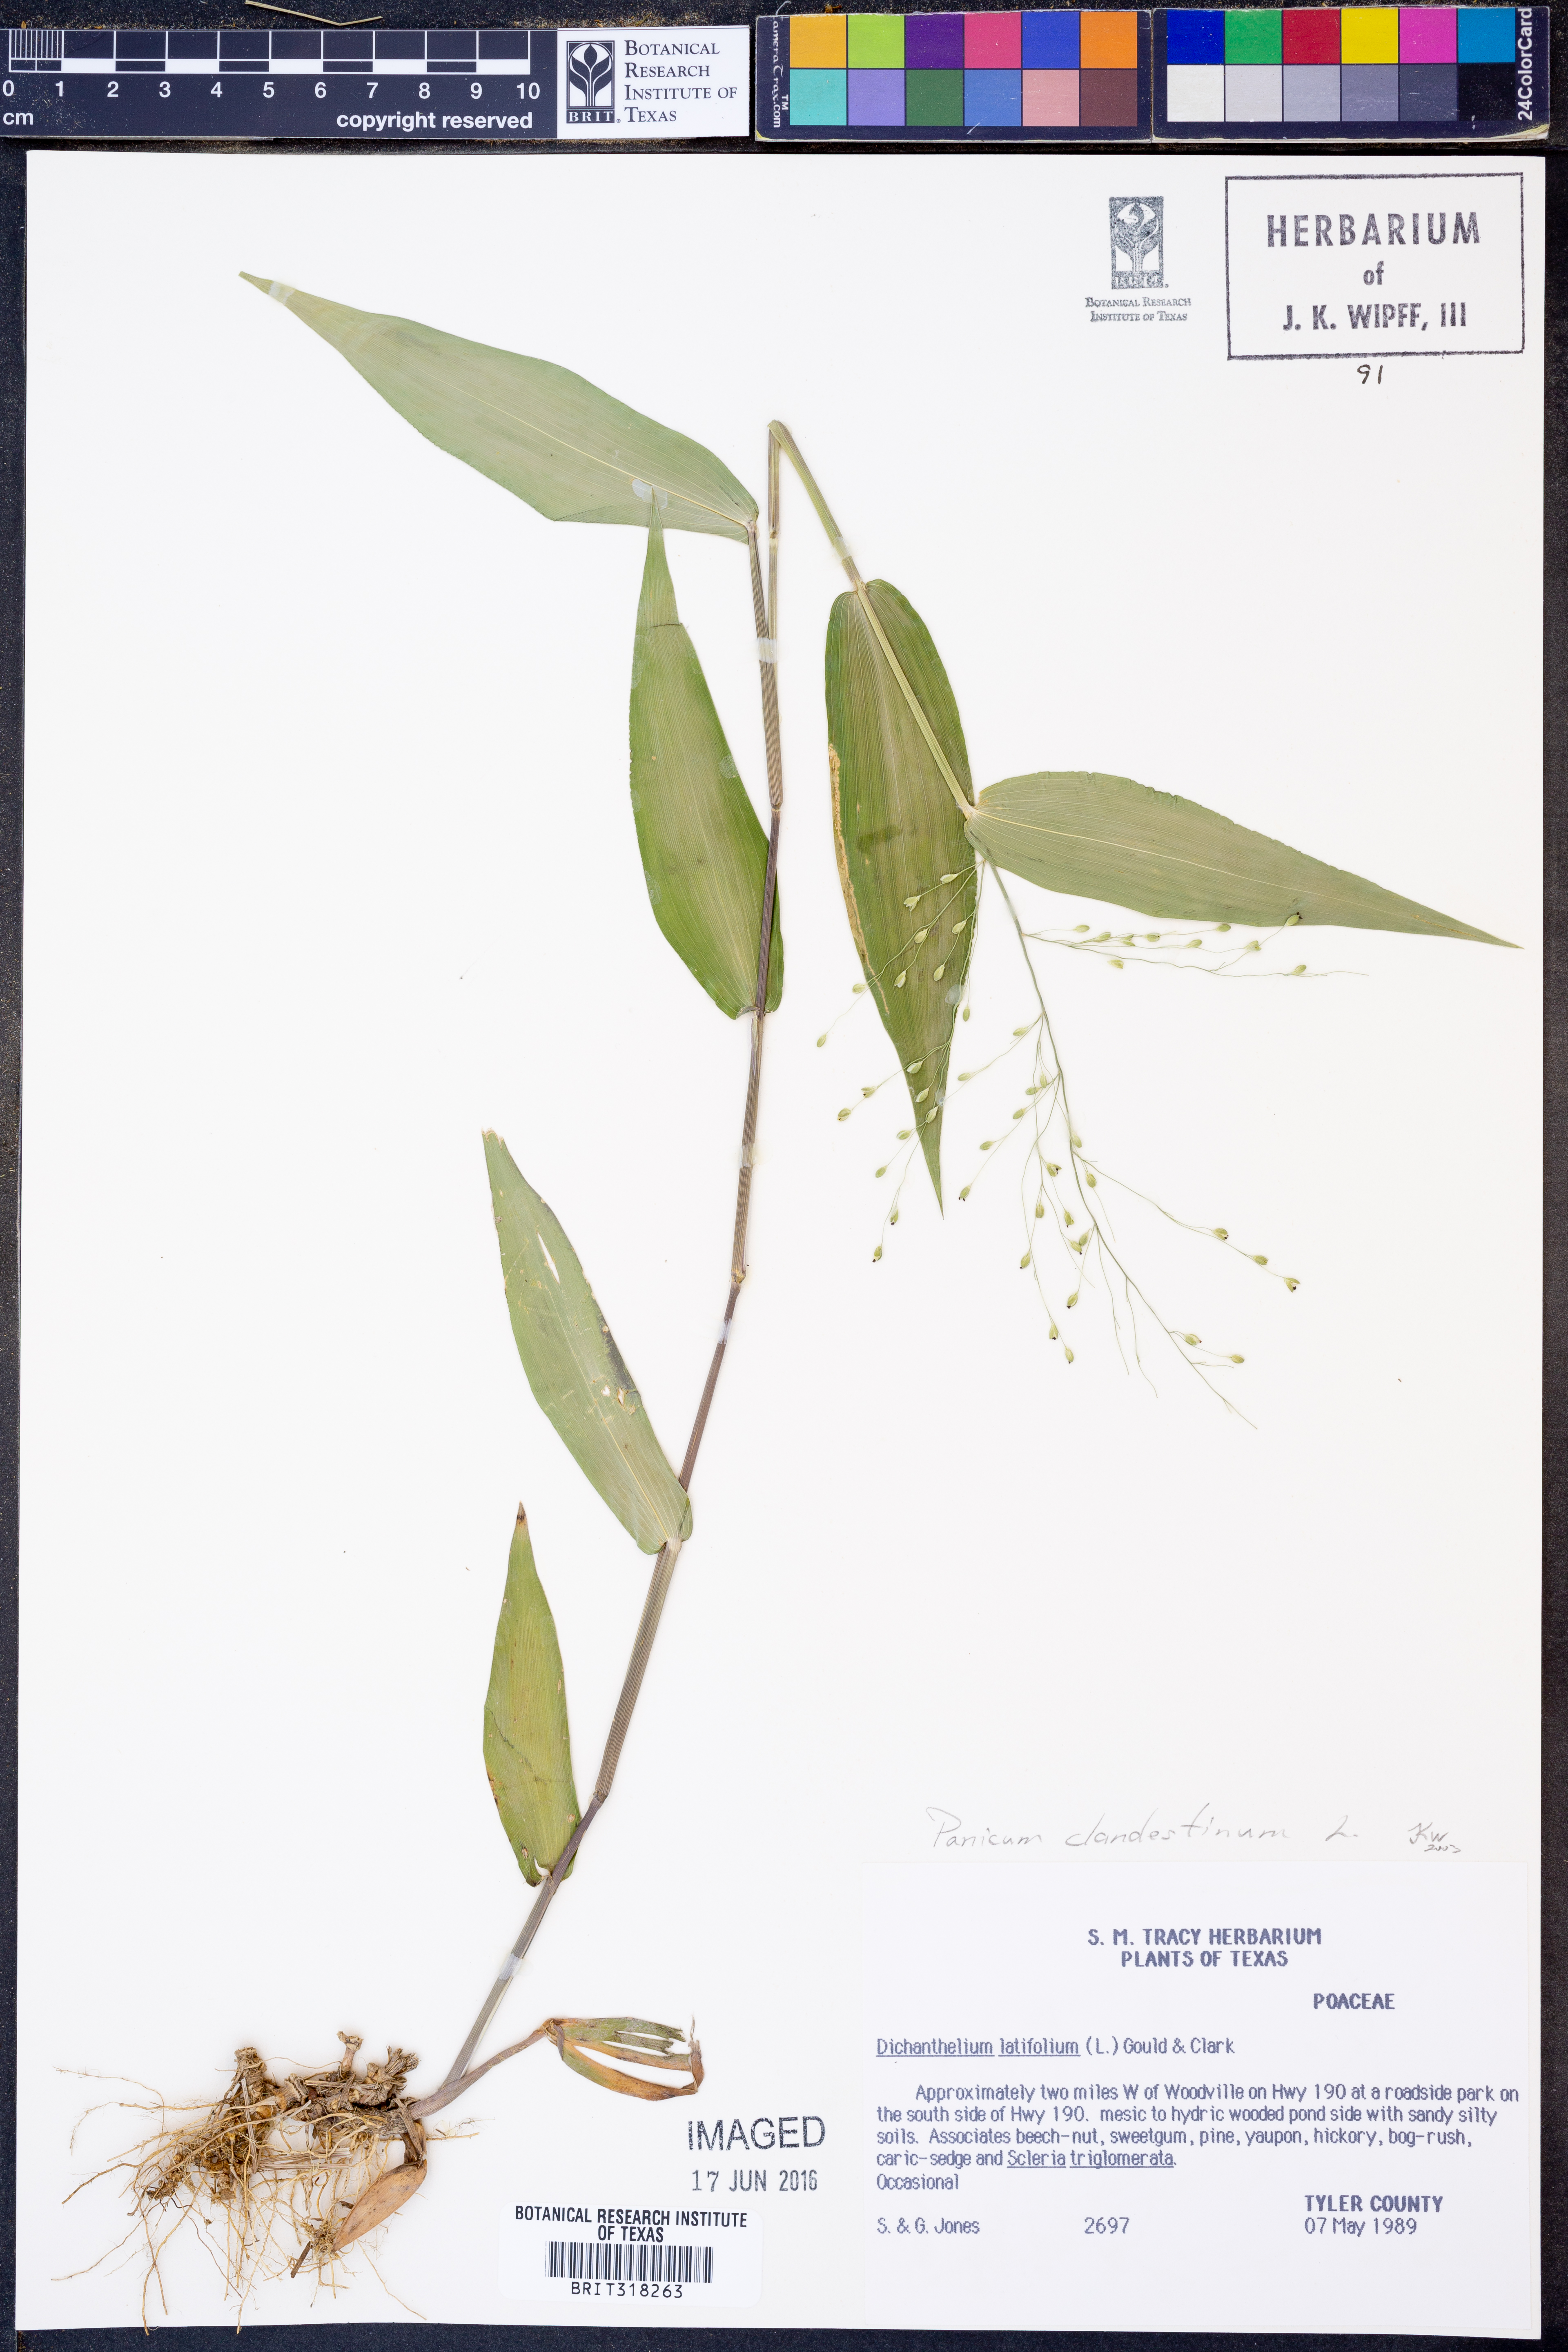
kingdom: Plantae
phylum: Tracheophyta
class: Liliopsida
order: Poales
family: Poaceae
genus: Dichanthelium
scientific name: Dichanthelium clandestinum
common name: Deer-tongue grass
